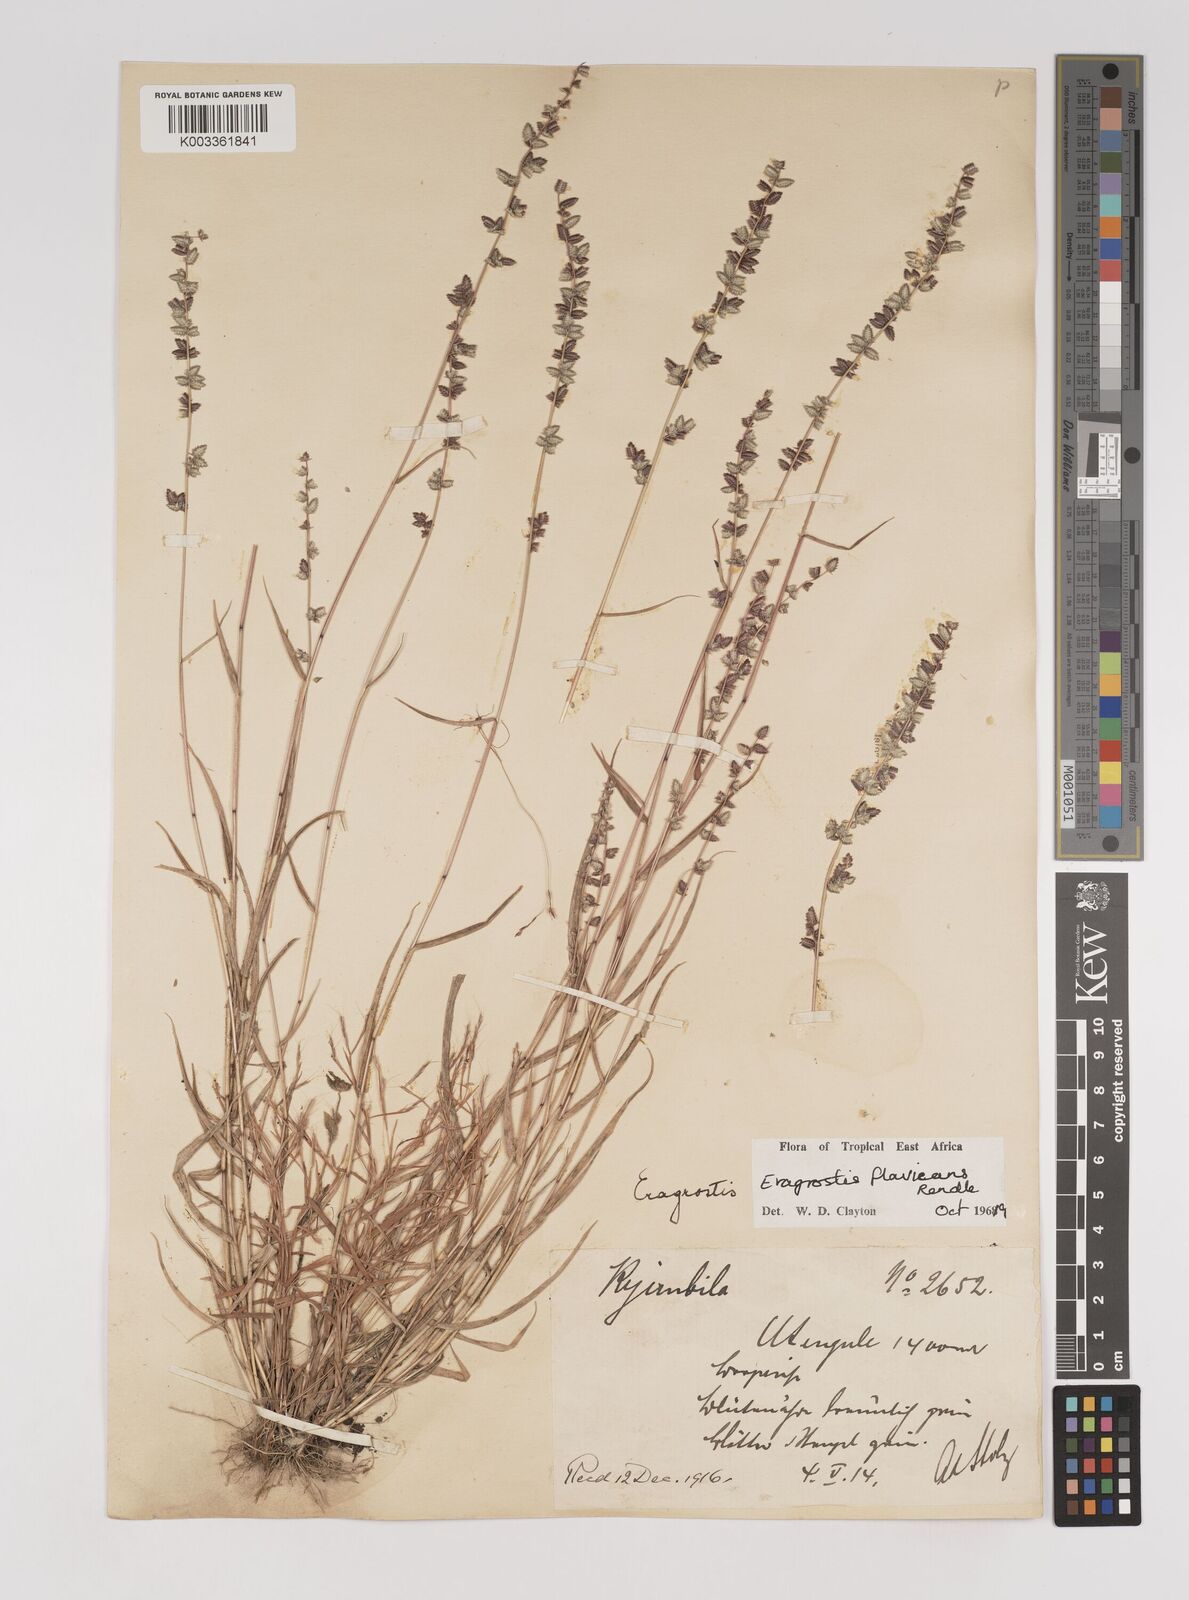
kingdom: Plantae
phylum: Tracheophyta
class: Liliopsida
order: Poales
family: Poaceae
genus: Eragrostis
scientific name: Eragrostis flavicans
